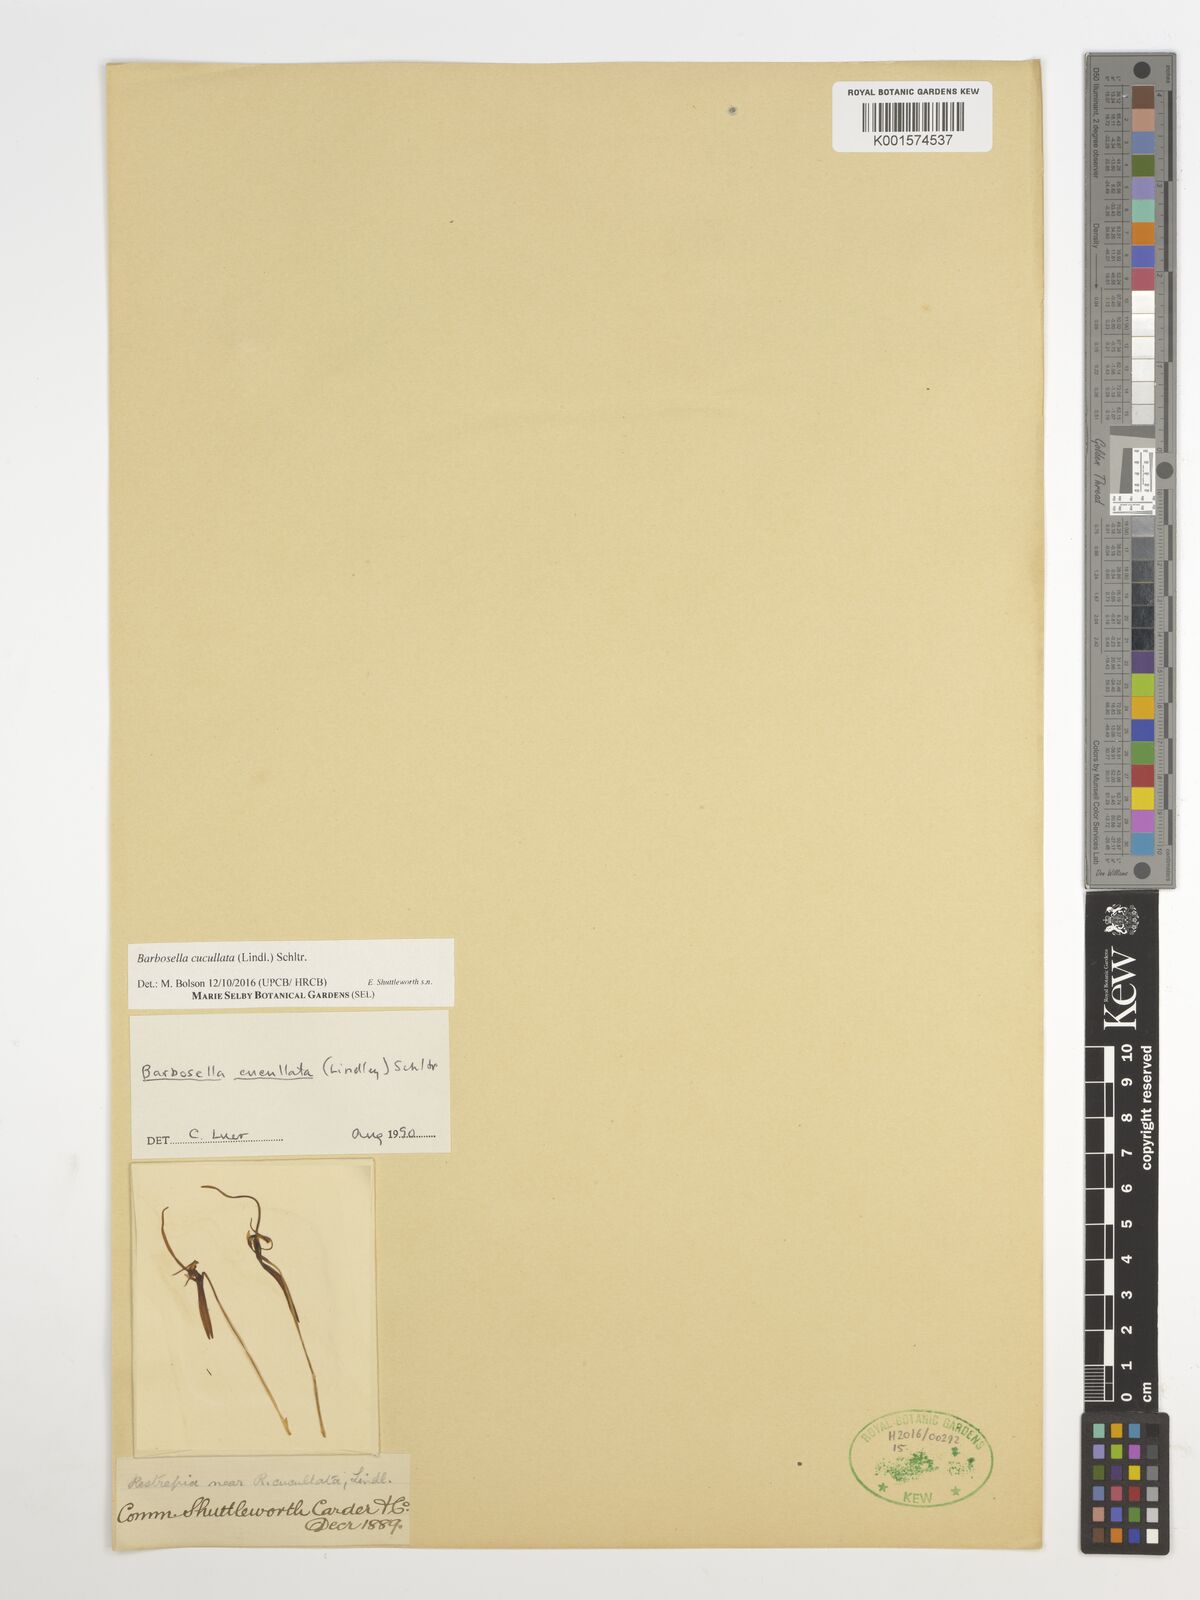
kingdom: Plantae
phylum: Tracheophyta
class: Liliopsida
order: Asparagales
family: Orchidaceae
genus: Barbosella
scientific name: Barbosella cucullata
